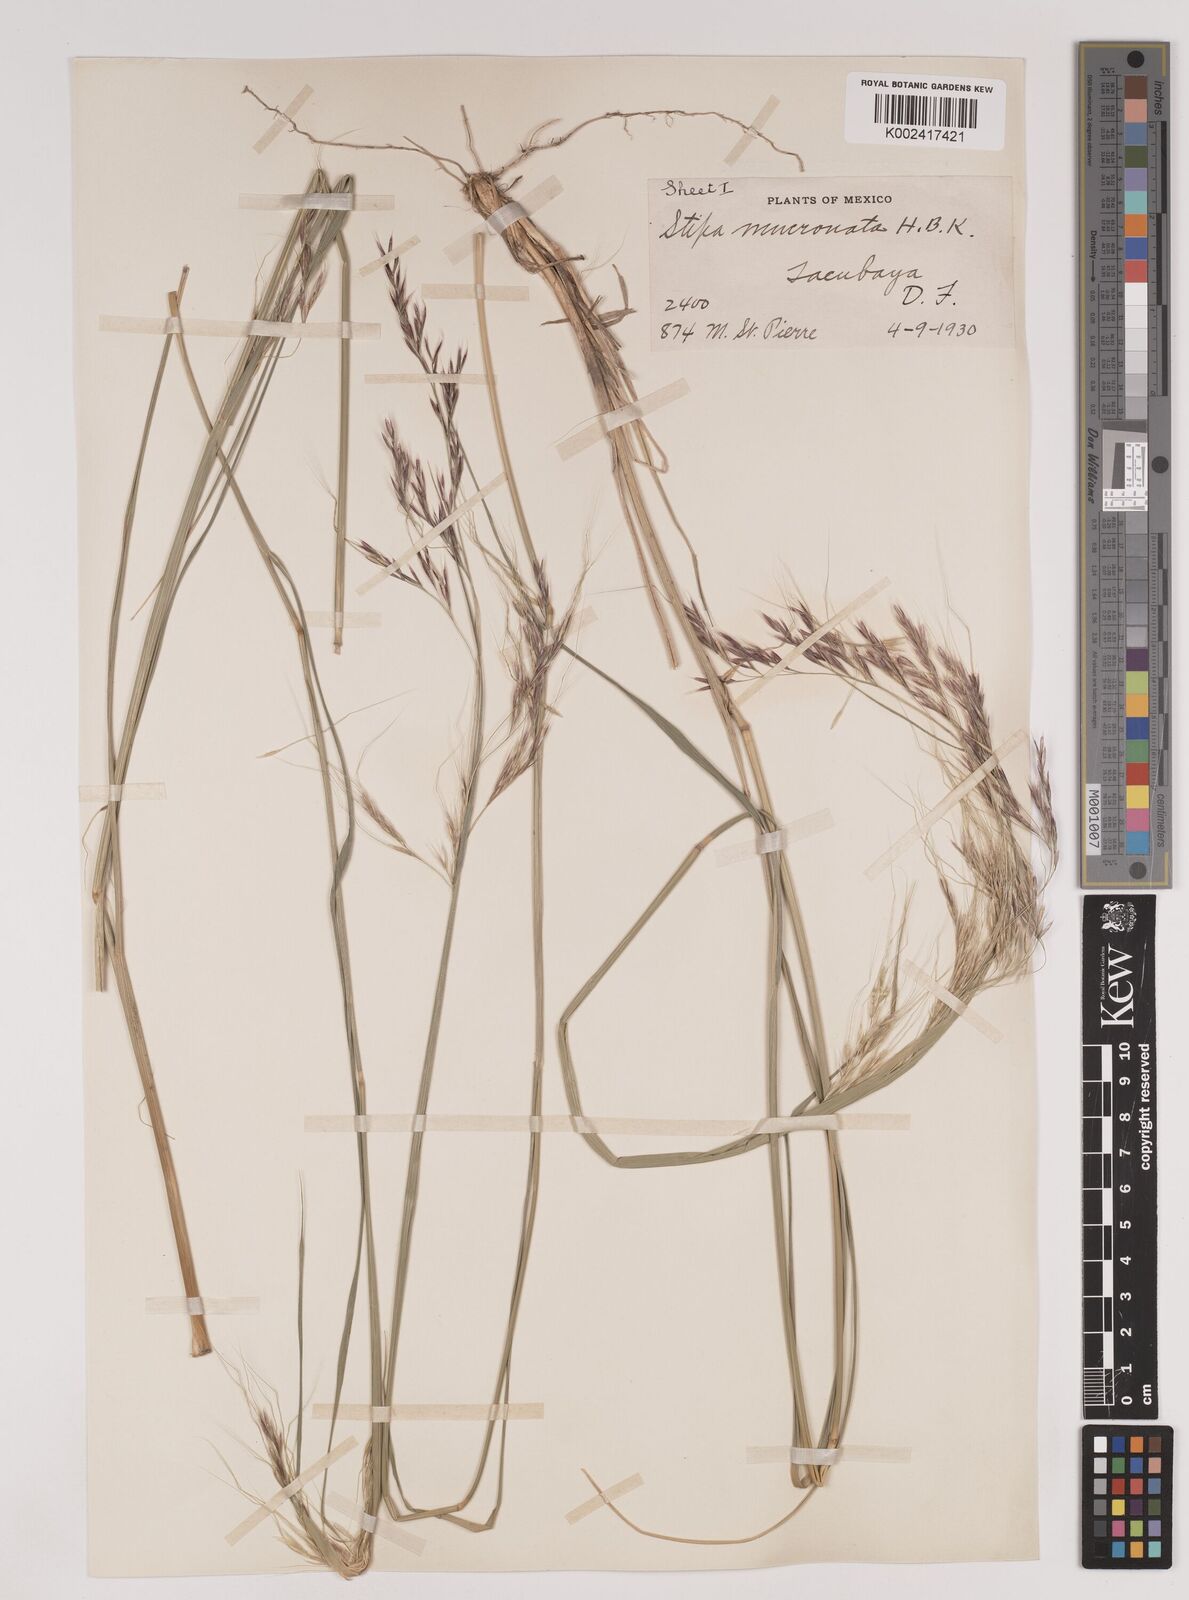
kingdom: Plantae
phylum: Tracheophyta
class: Liliopsida
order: Poales
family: Poaceae
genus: Nassella
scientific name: Nassella mucronata
